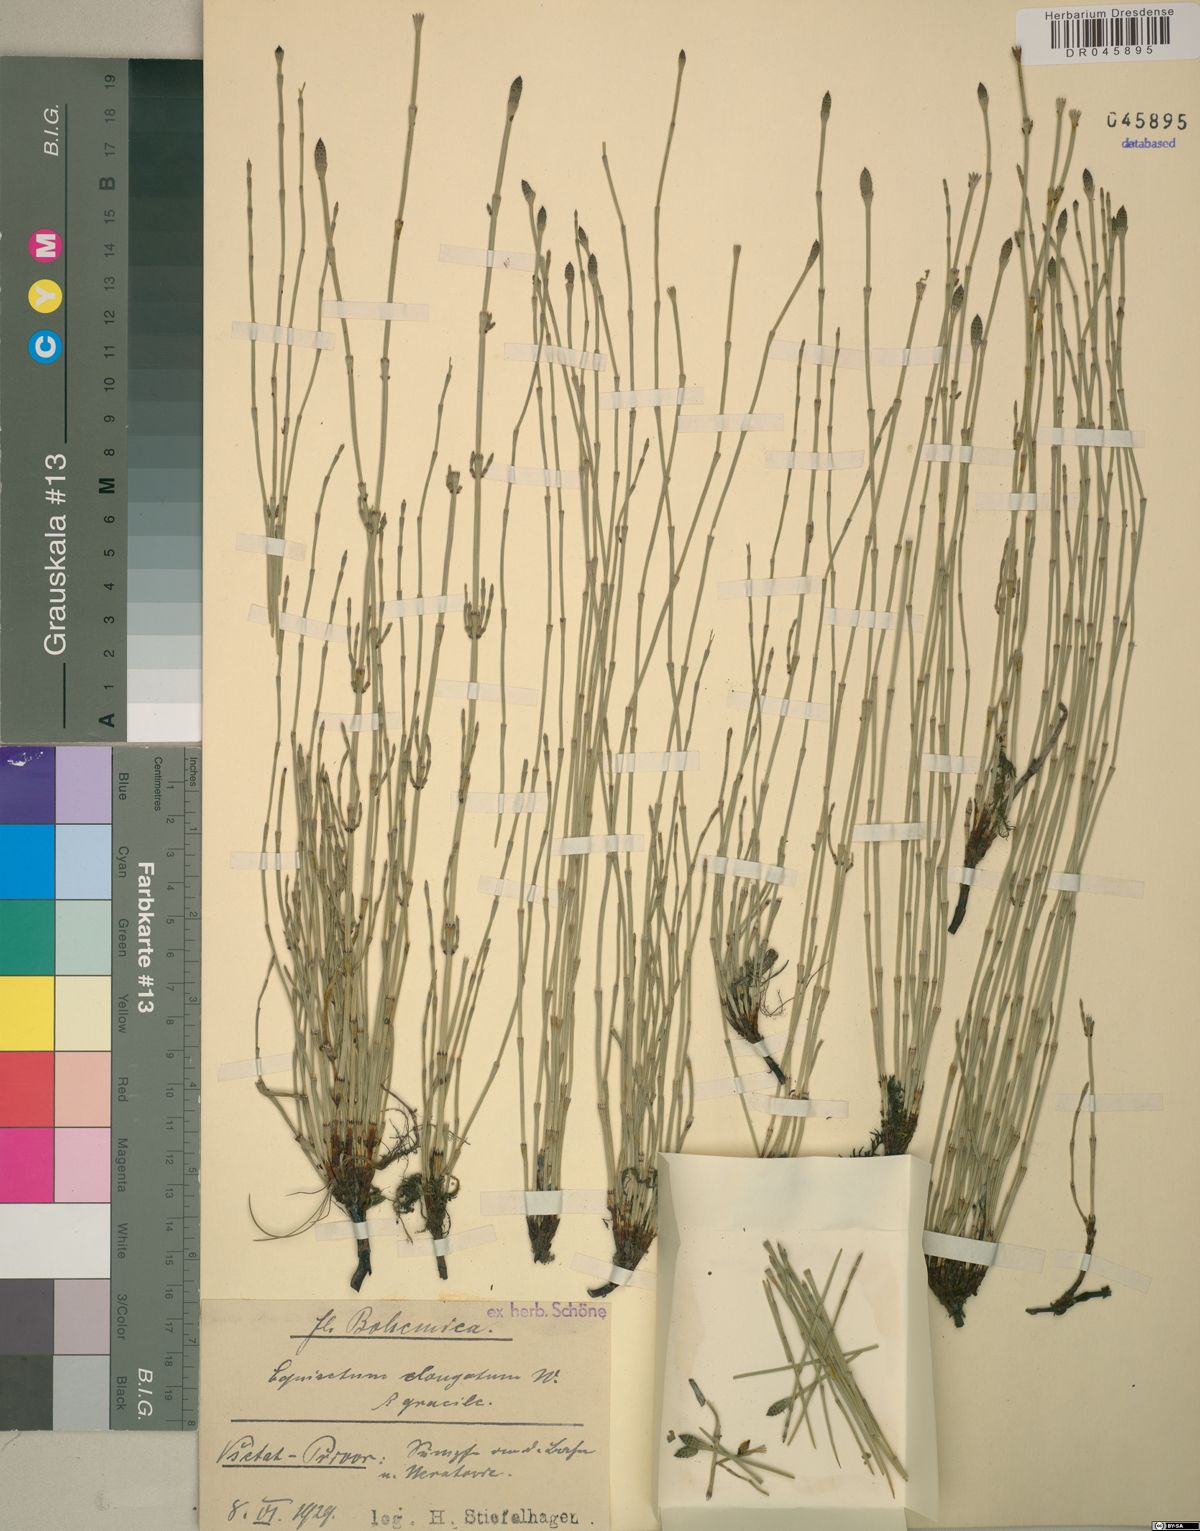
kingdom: Plantae
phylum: Tracheophyta
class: Polypodiopsida
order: Equisetales
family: Equisetaceae
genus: Equisetum
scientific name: Equisetum ramosissimum
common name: Branched horsetail
